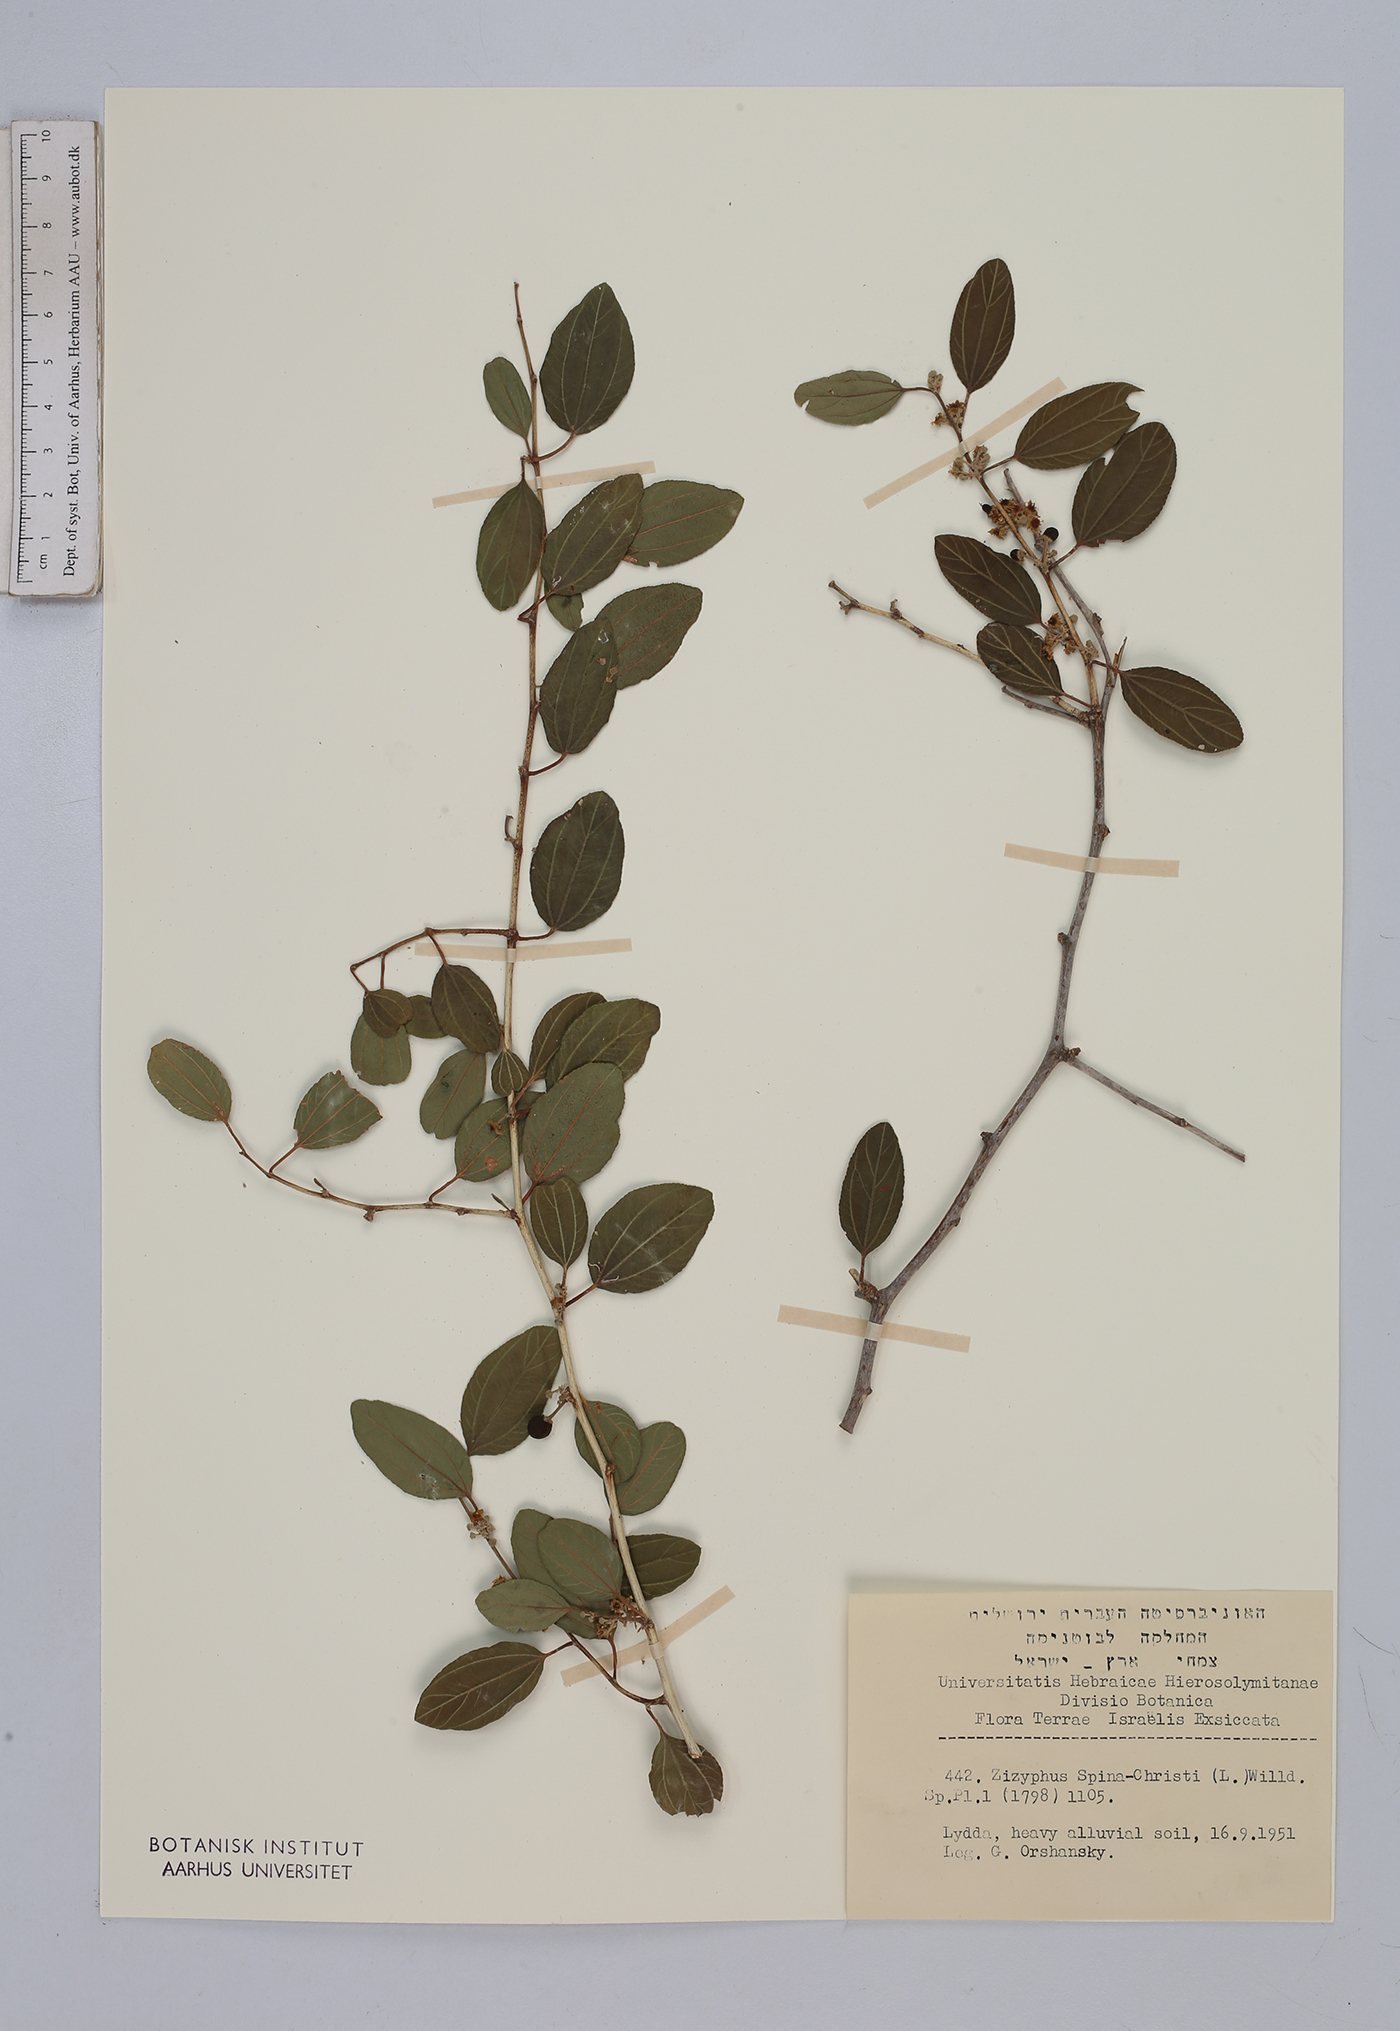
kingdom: Plantae
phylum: Tracheophyta
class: Magnoliopsida
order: Rosales
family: Rhamnaceae
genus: Ziziphus
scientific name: Ziziphus spina-christi
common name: Syrian christ-thorn
